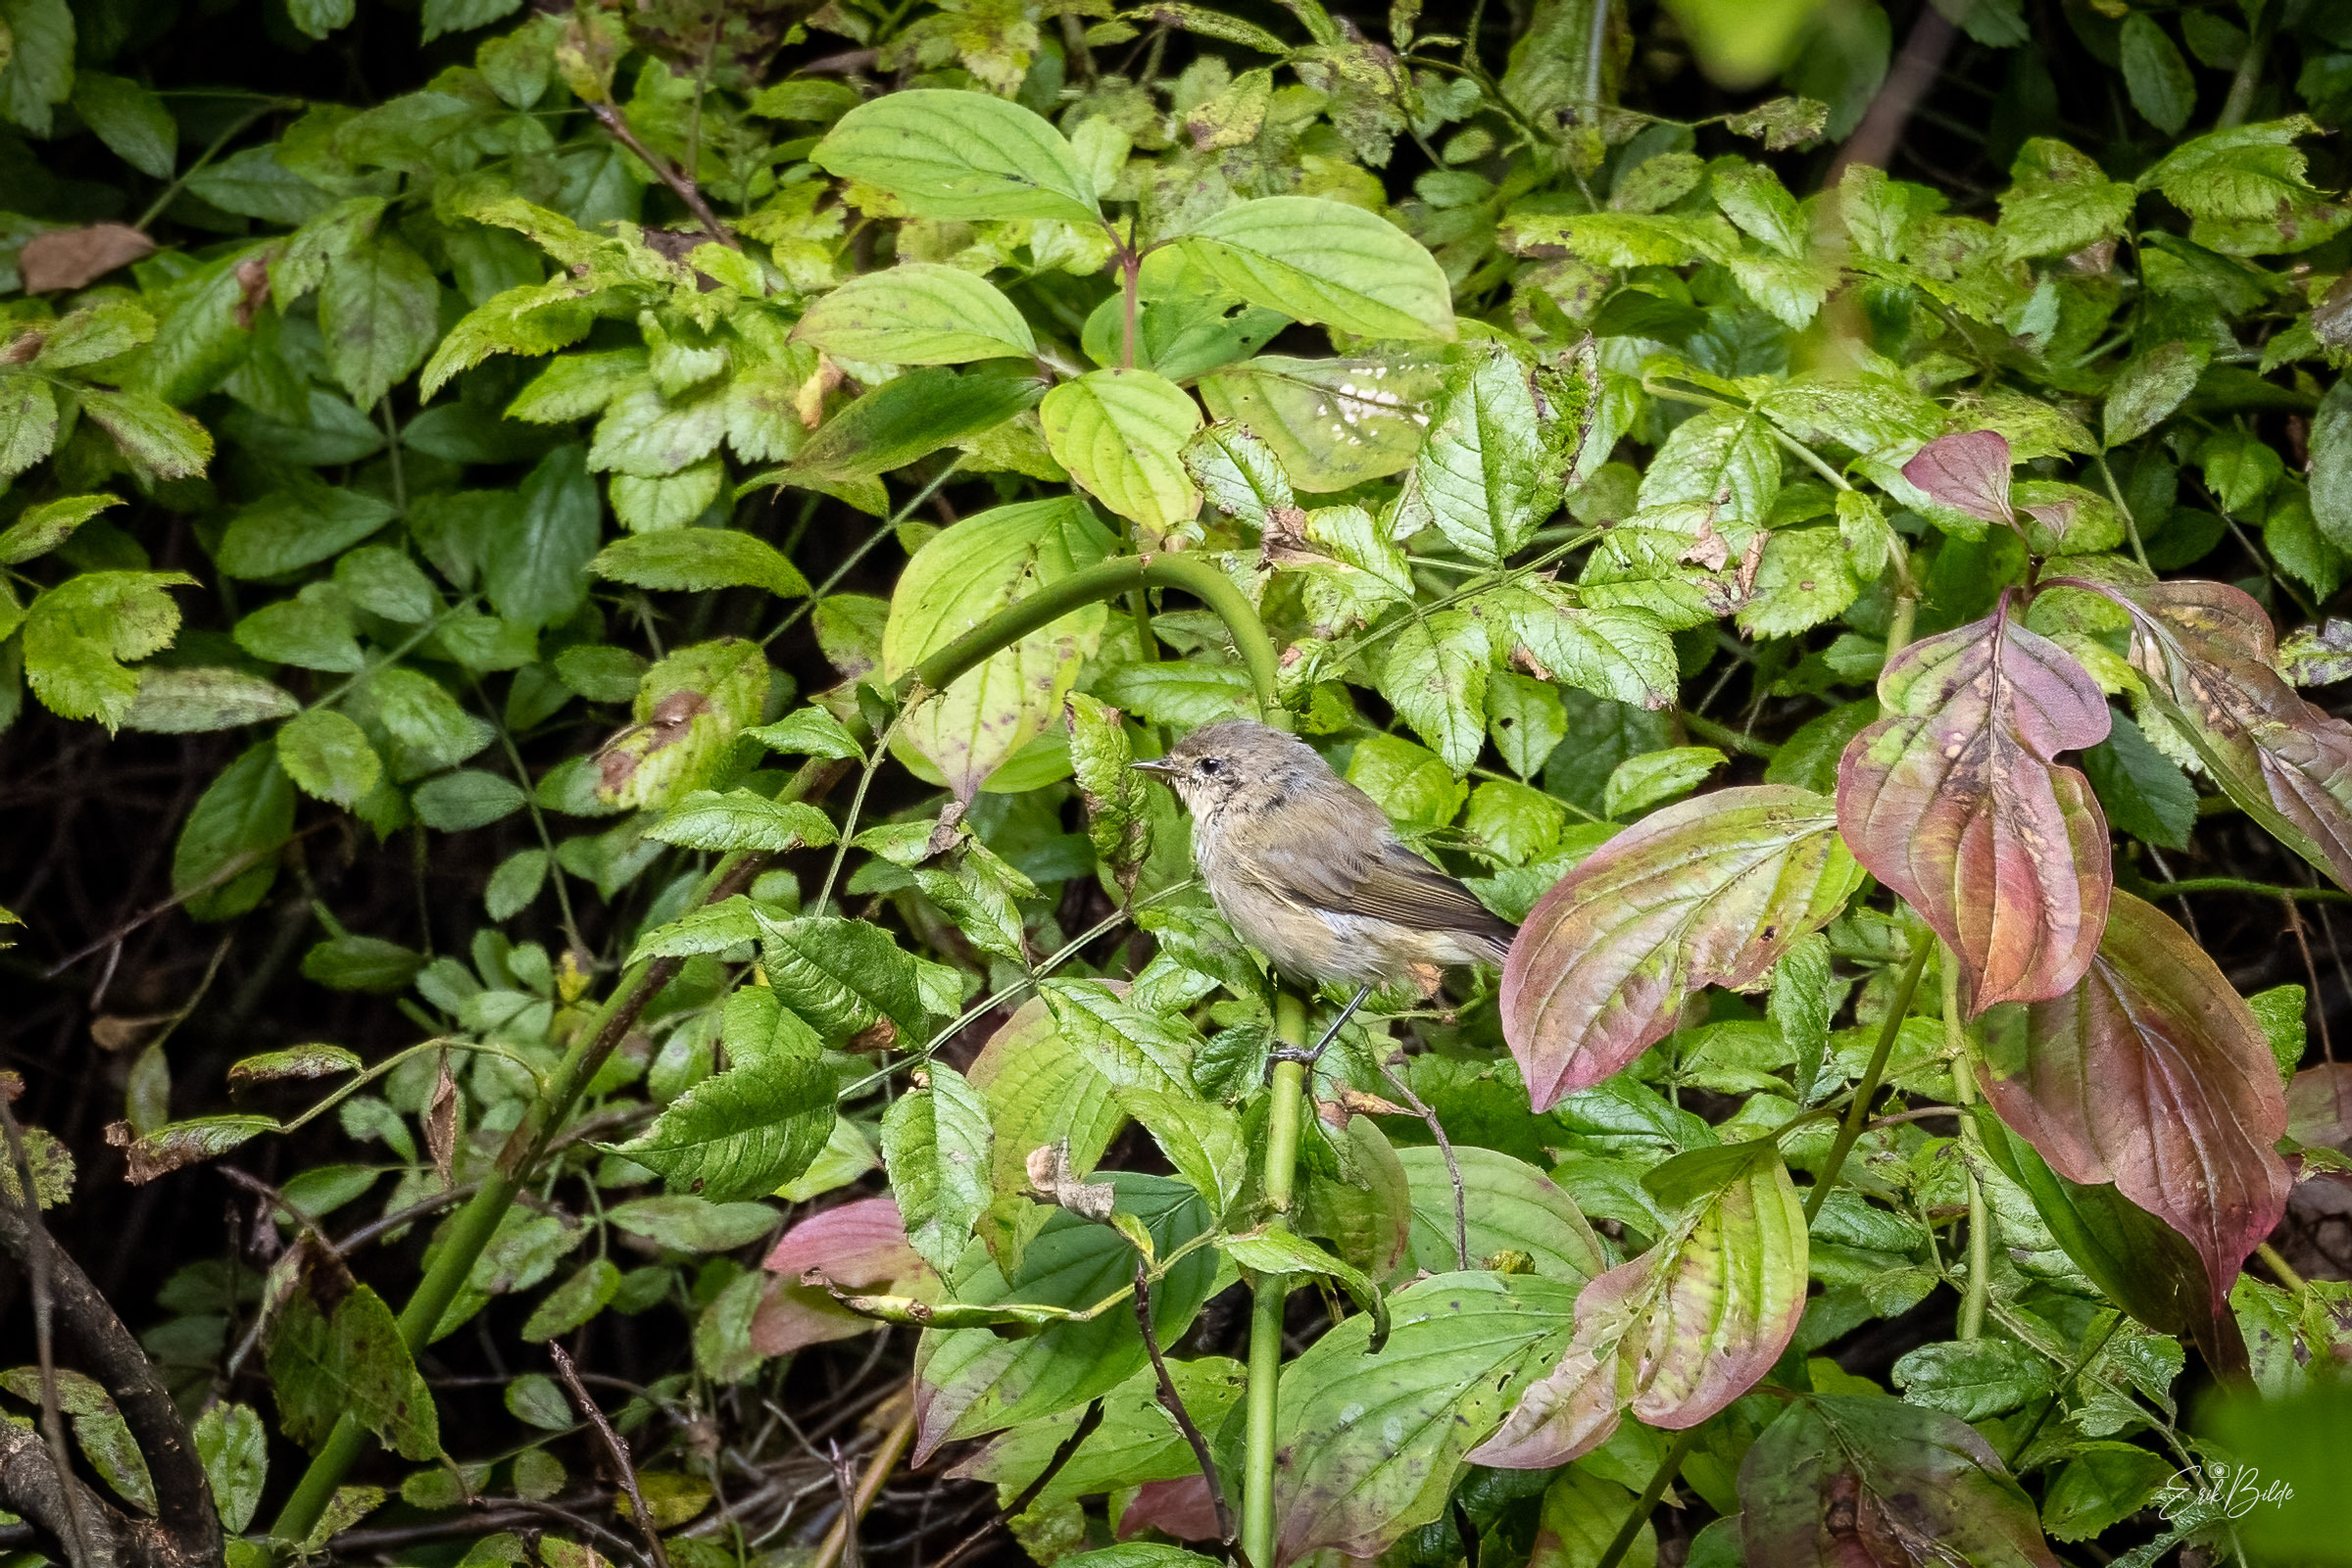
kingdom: Animalia
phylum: Chordata
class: Aves
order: Passeriformes
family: Phylloscopidae
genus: Phylloscopus
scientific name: Phylloscopus collybita
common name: Gransanger
